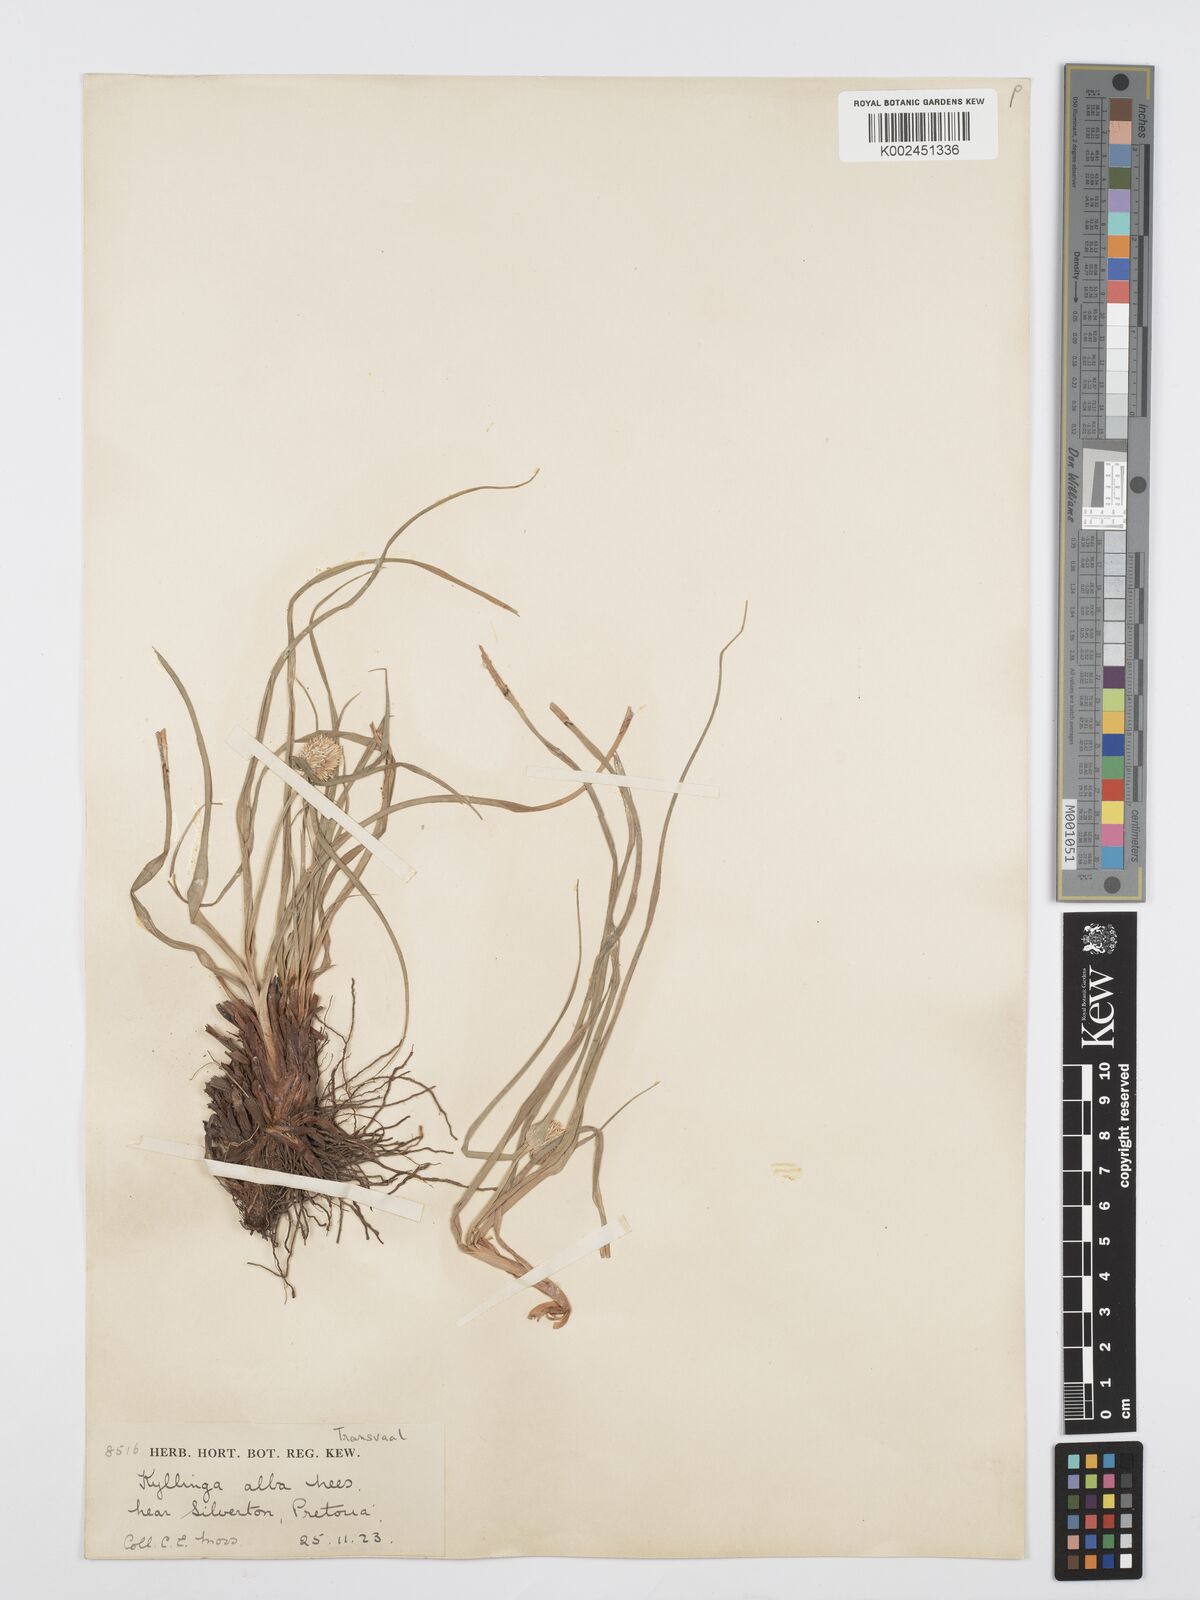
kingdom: Plantae
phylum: Tracheophyta
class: Liliopsida
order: Poales
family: Cyperaceae
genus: Cyperus
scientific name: Cyperus
